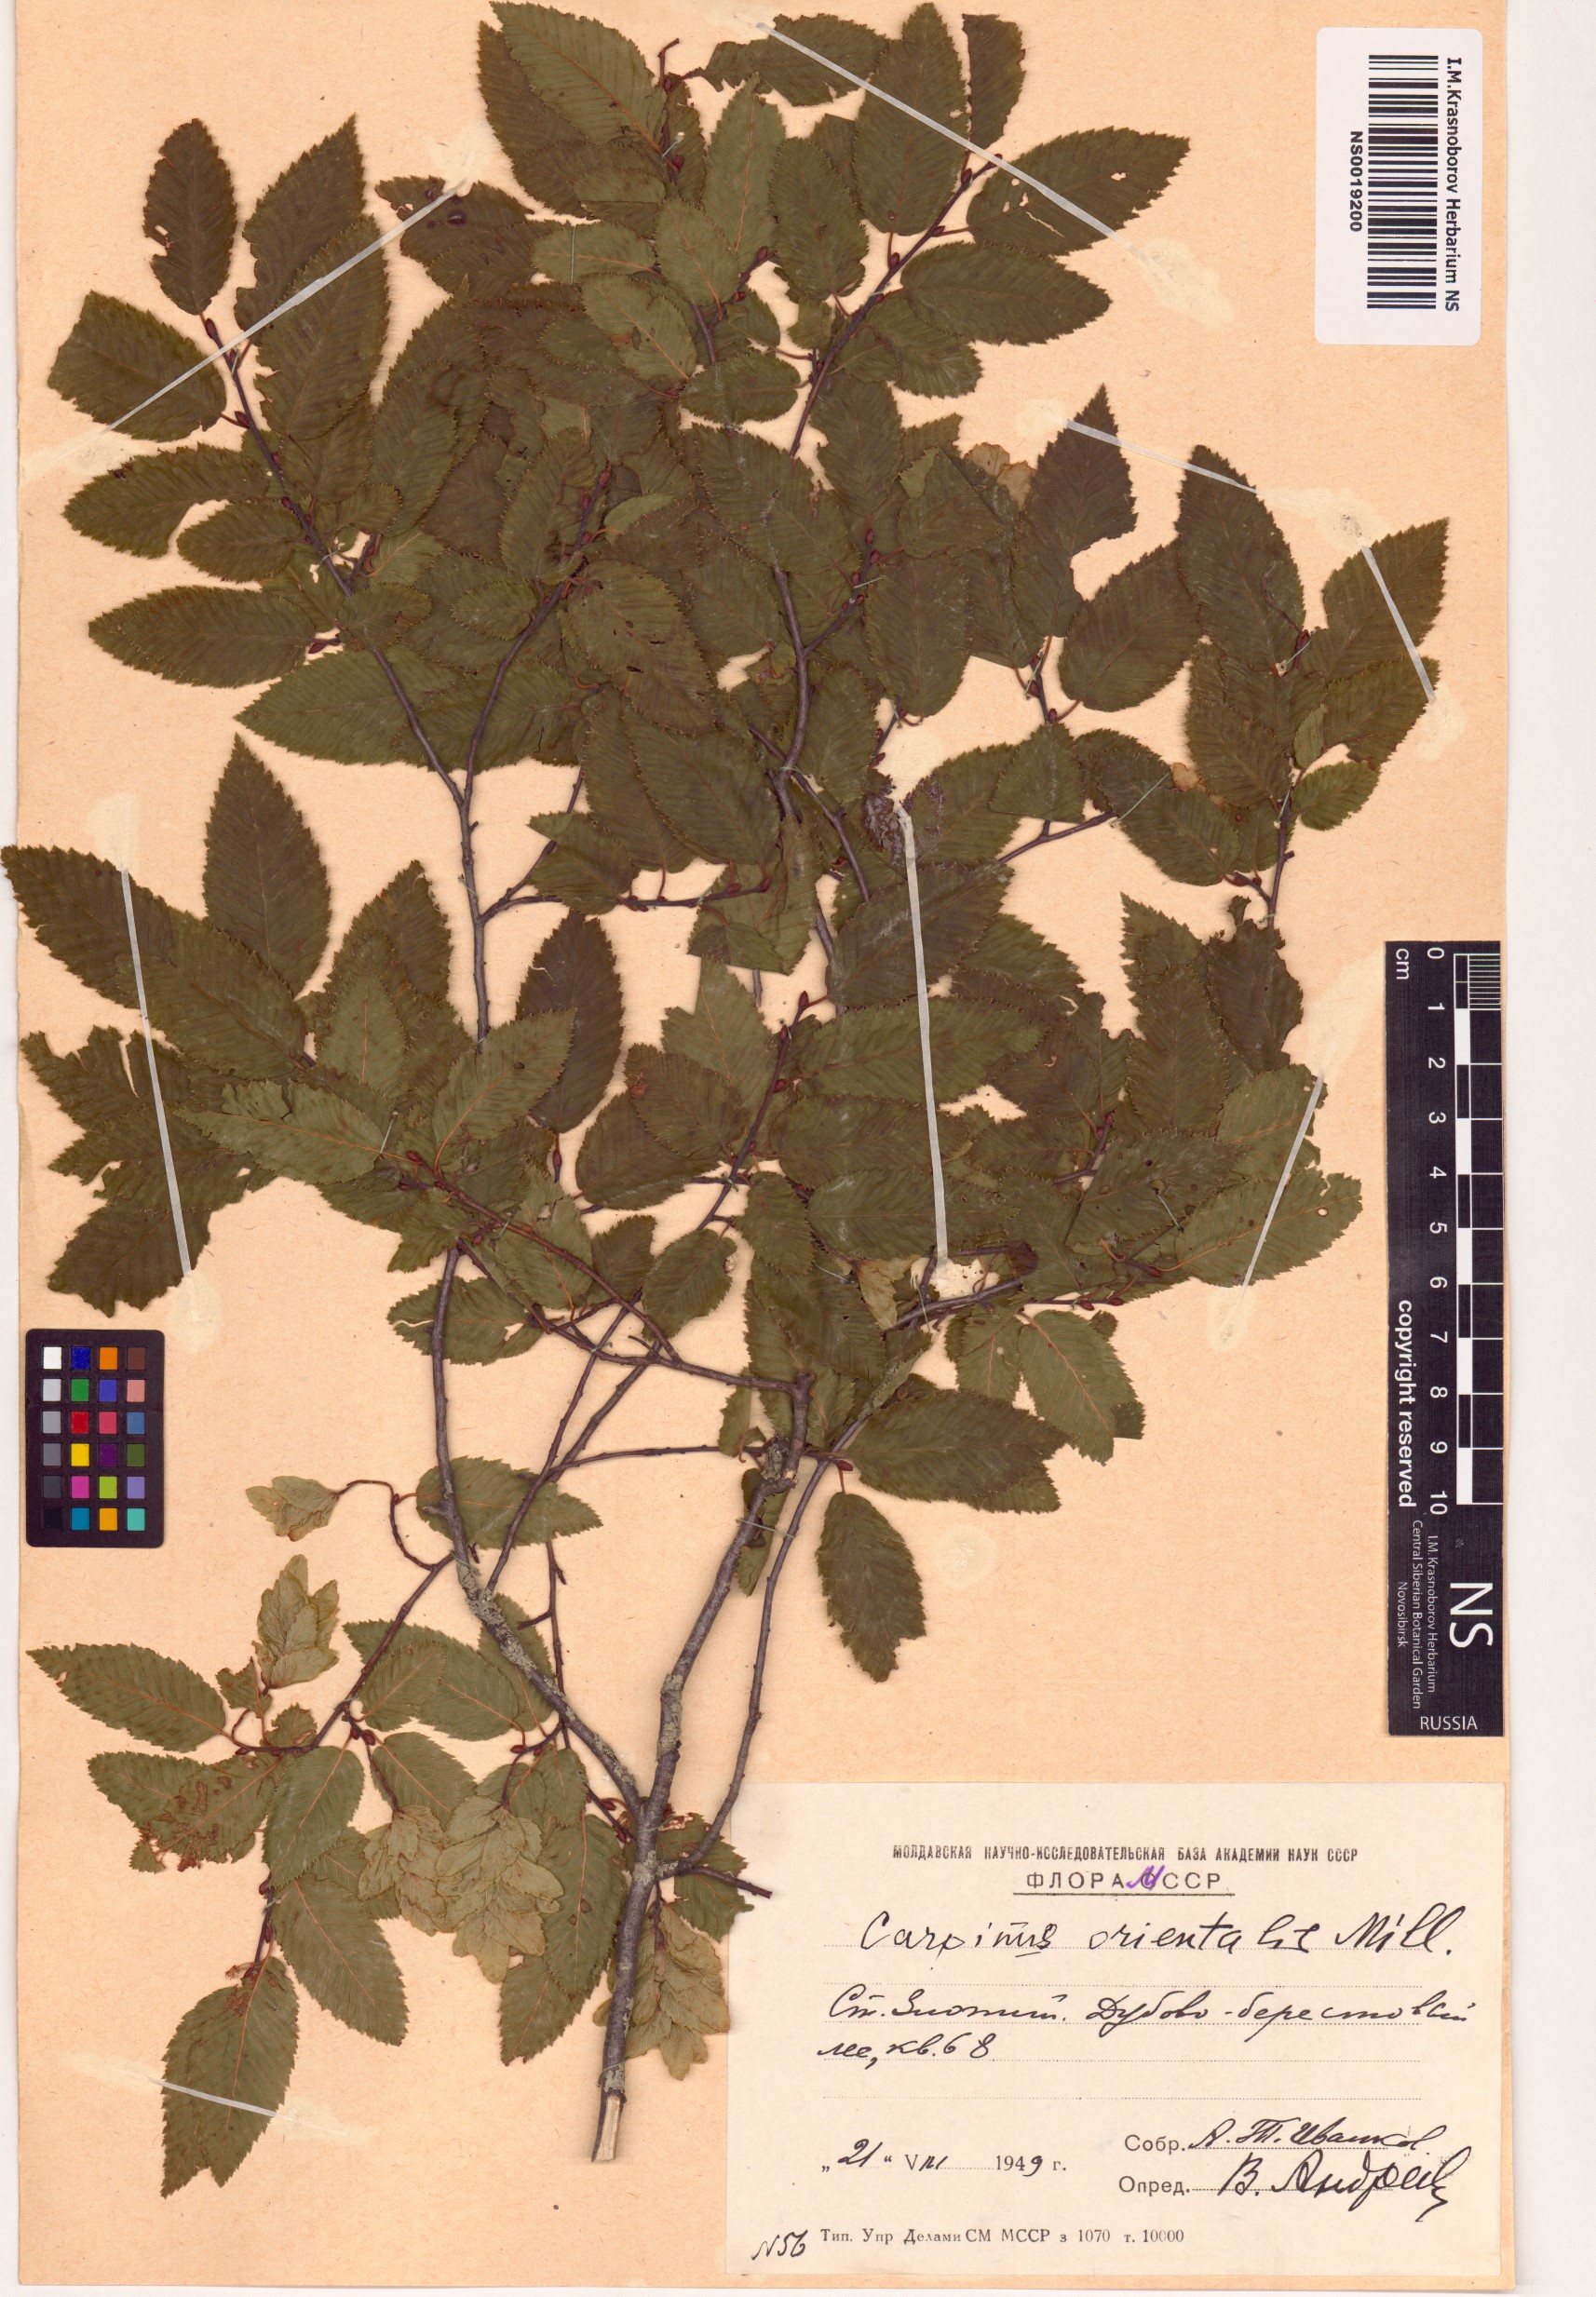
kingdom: Plantae
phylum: Tracheophyta
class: Magnoliopsida
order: Fagales
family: Betulaceae
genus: Carpinus
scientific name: Carpinus orientalis
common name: Eastern hornbeam
